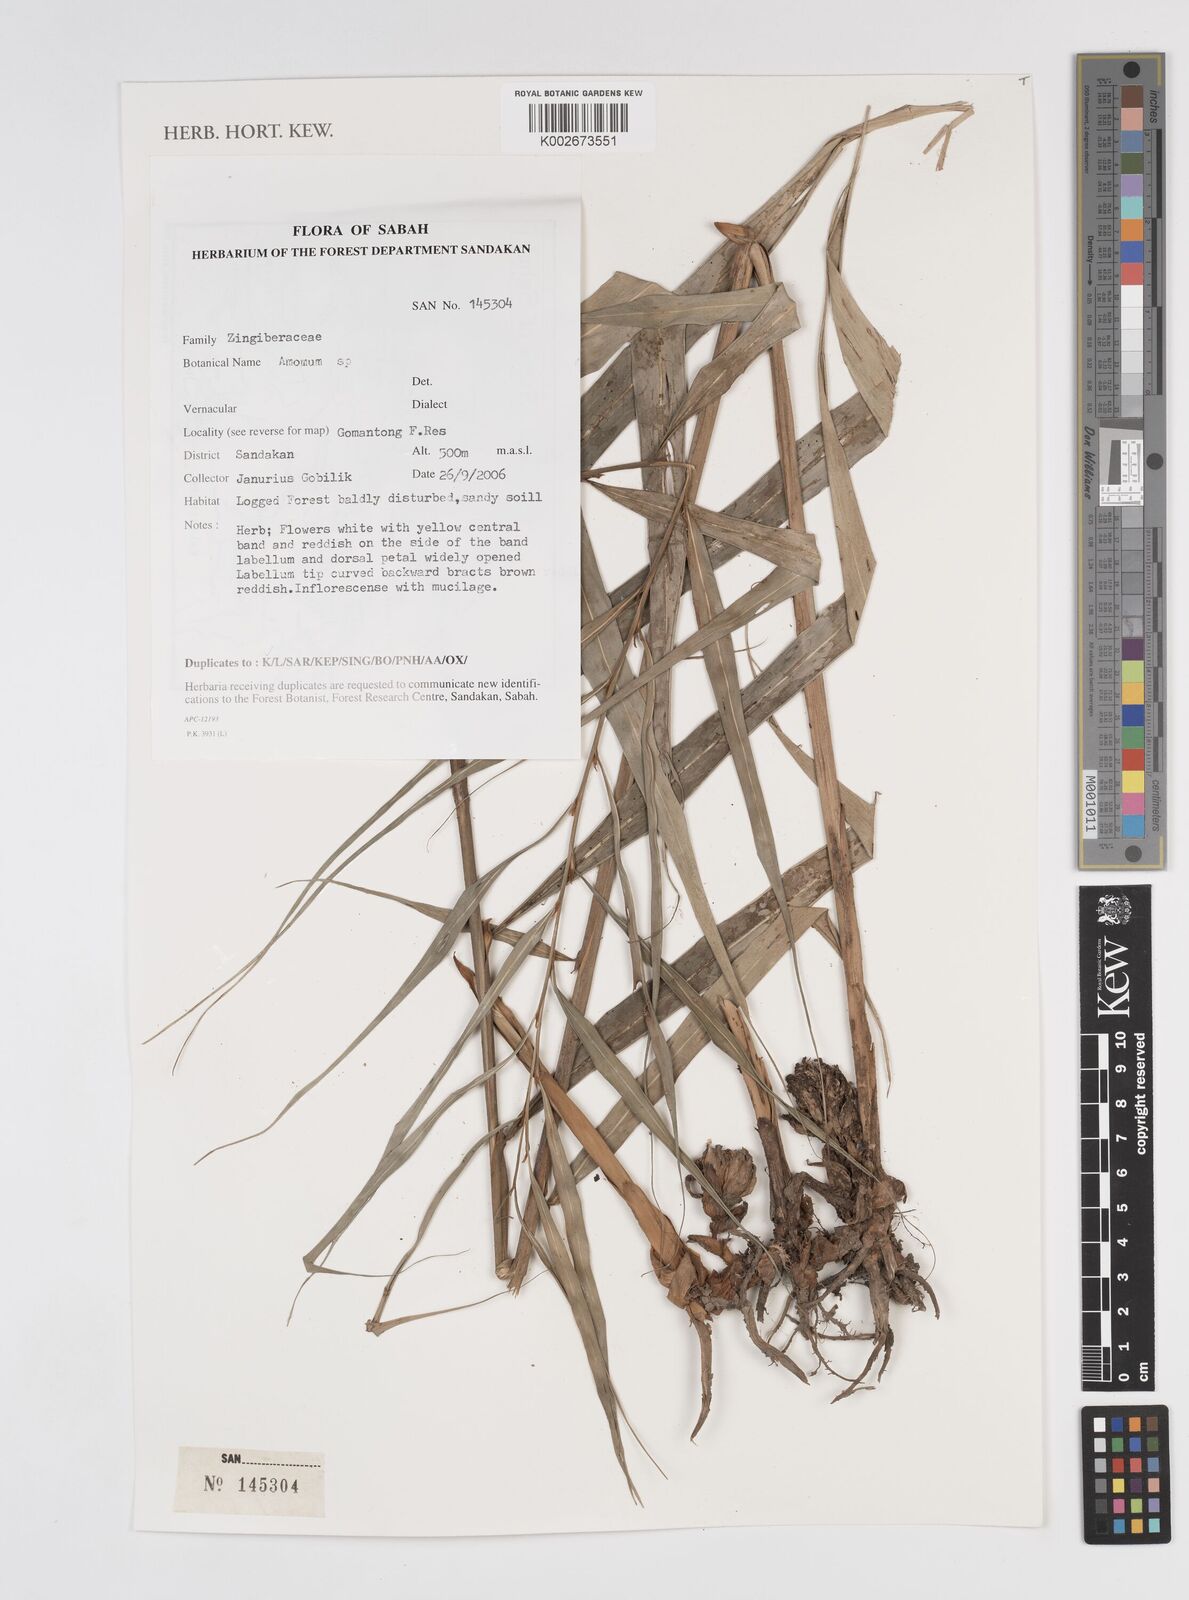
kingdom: Plantae
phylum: Tracheophyta
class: Liliopsida
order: Zingiberales
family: Zingiberaceae
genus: Amomum
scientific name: Amomum
